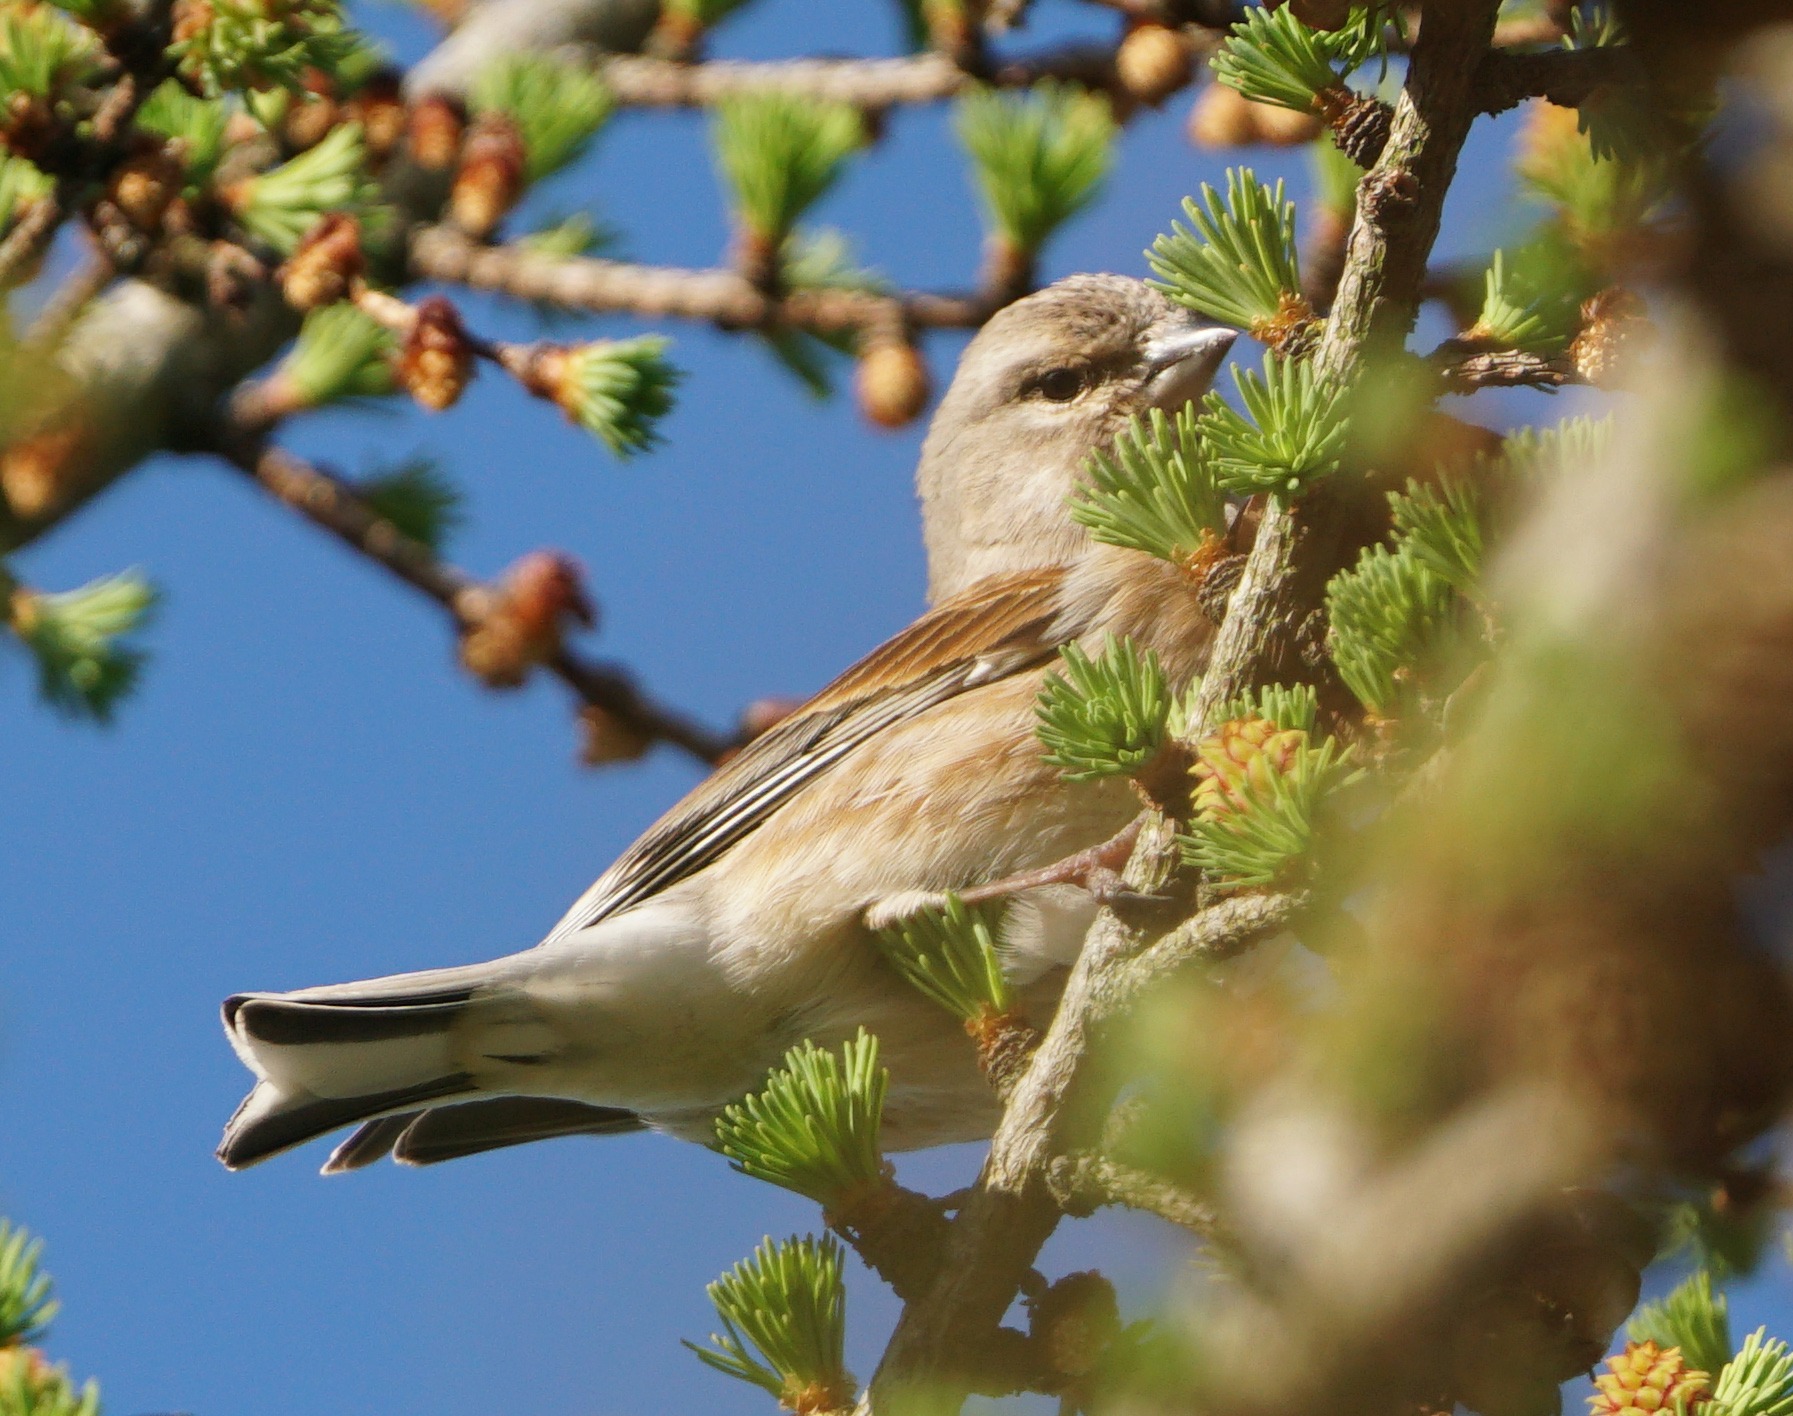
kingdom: Animalia
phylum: Chordata
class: Aves
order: Passeriformes
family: Fringillidae
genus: Linaria
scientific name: Linaria cannabina
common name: Tornirisk
